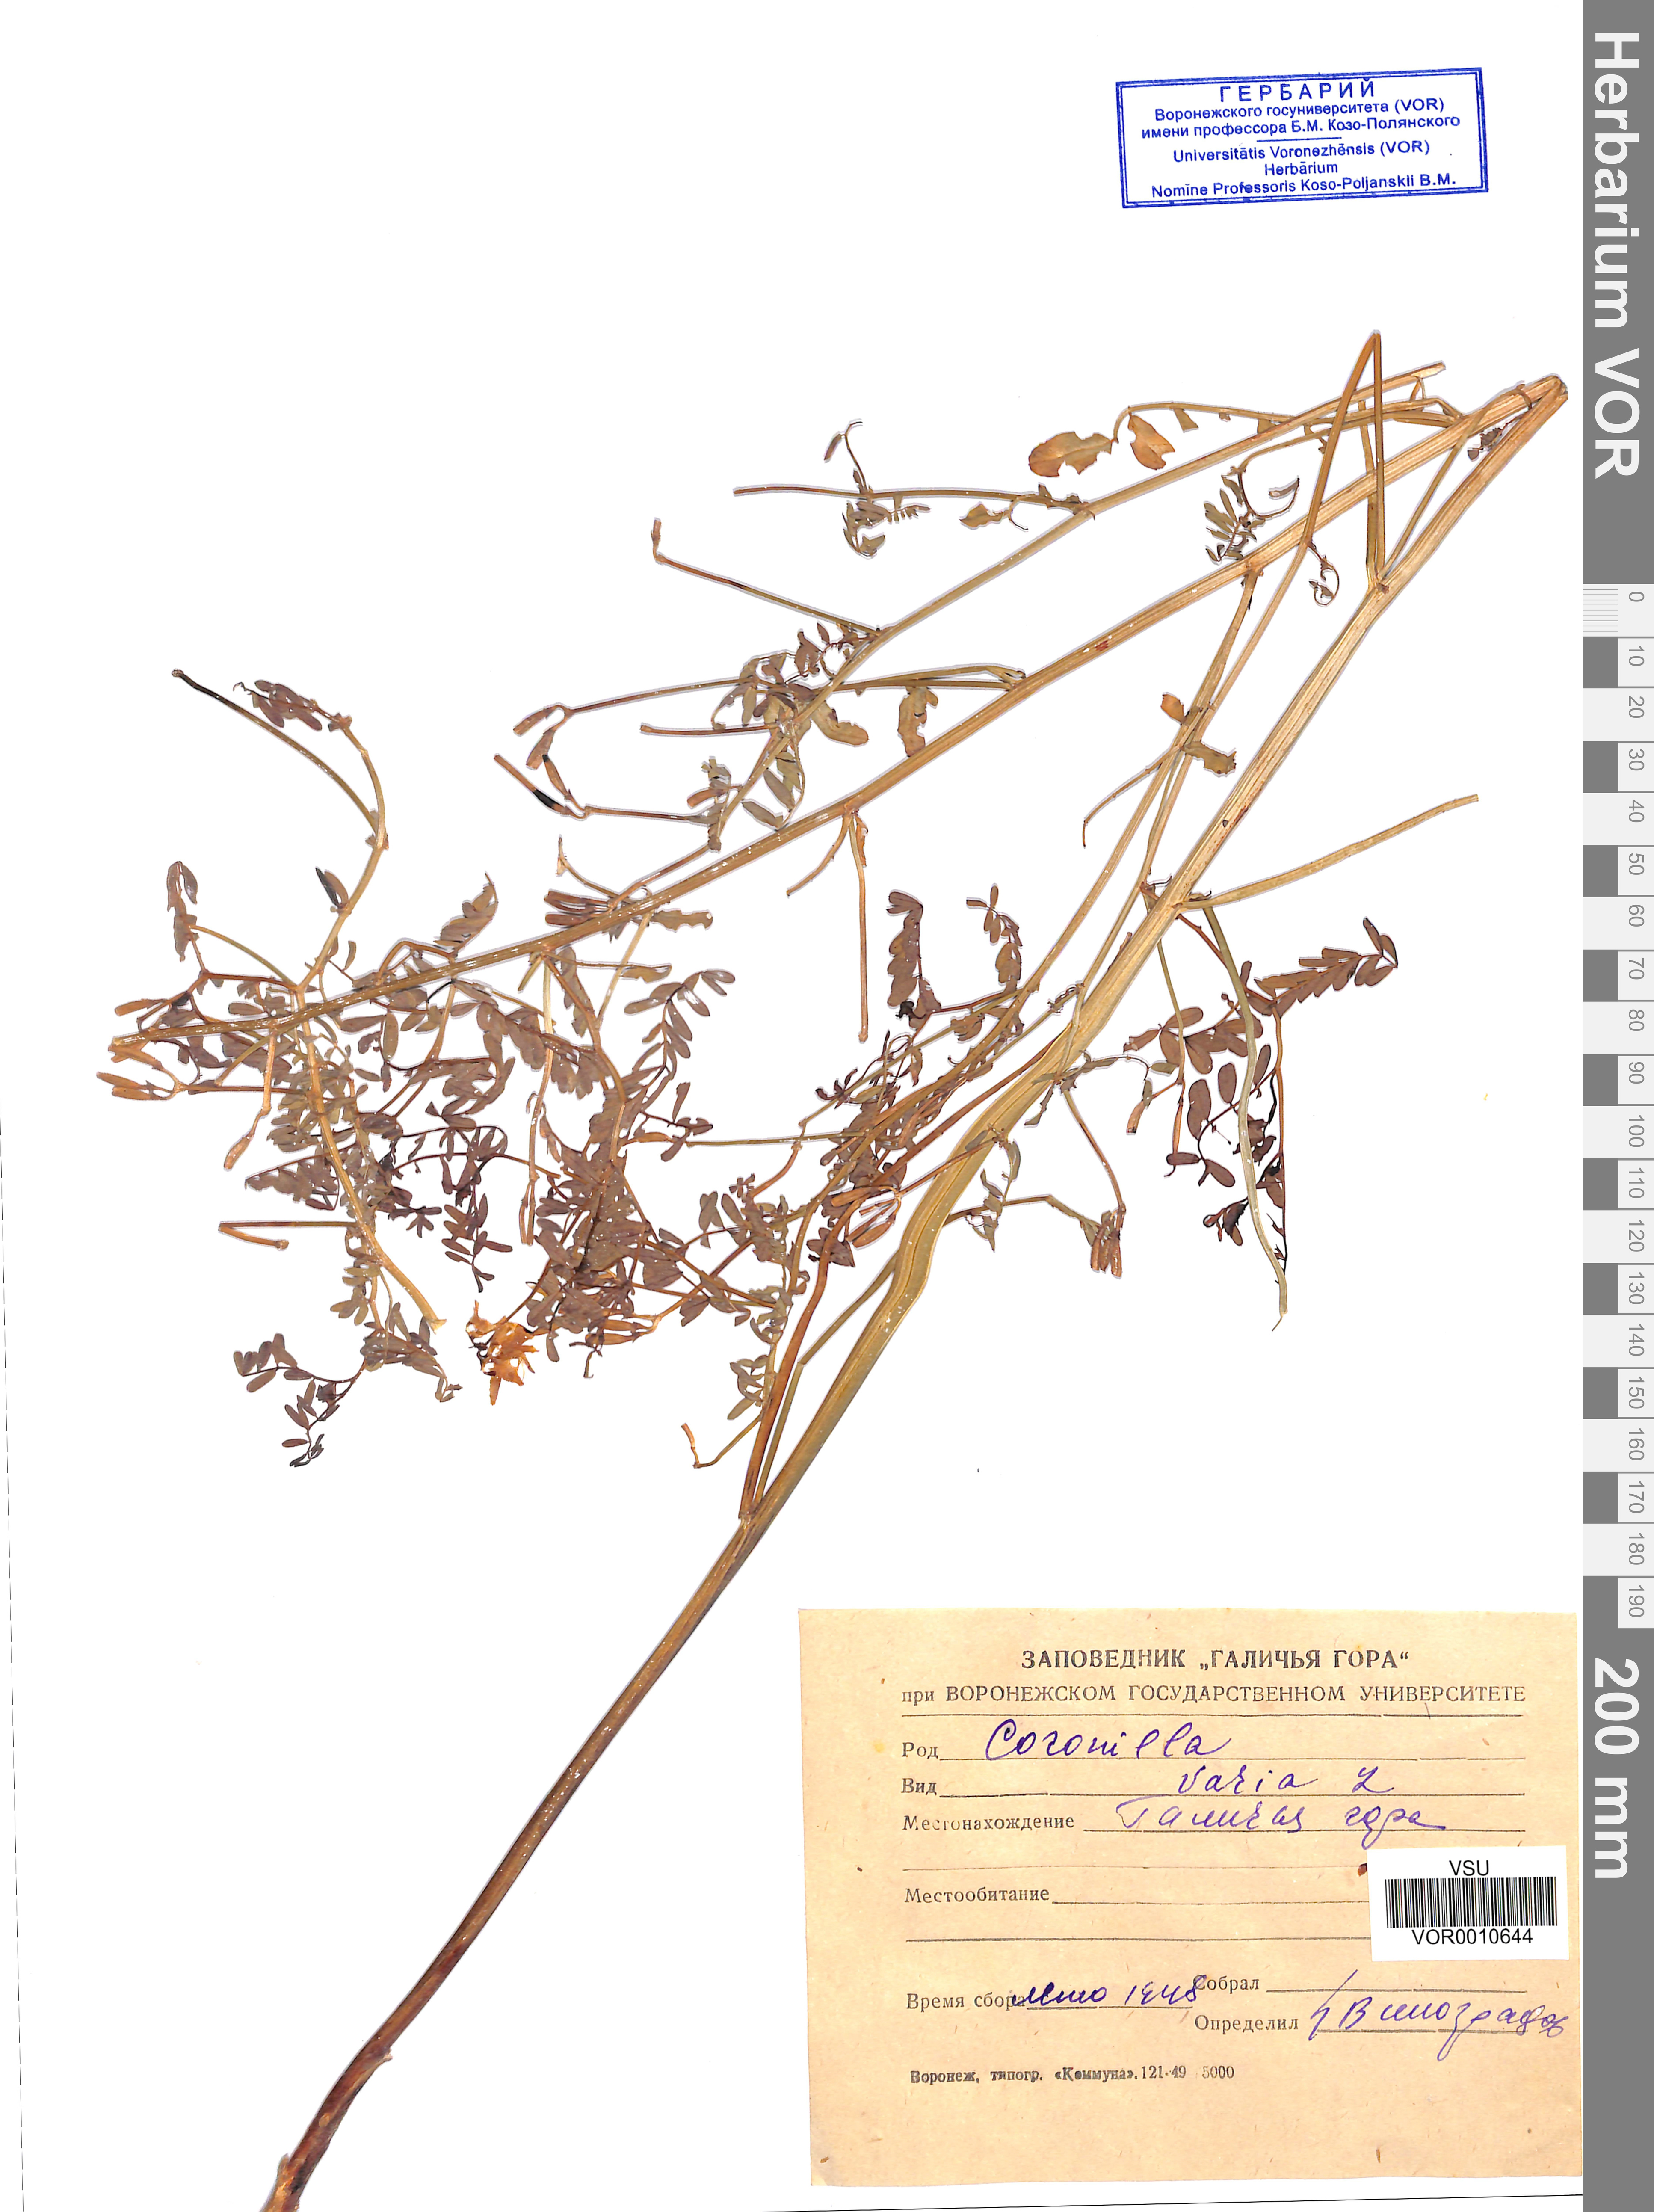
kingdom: Plantae
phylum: Tracheophyta
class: Magnoliopsida
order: Fabales
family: Fabaceae
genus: Coronilla
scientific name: Coronilla varia
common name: Crownvetch
